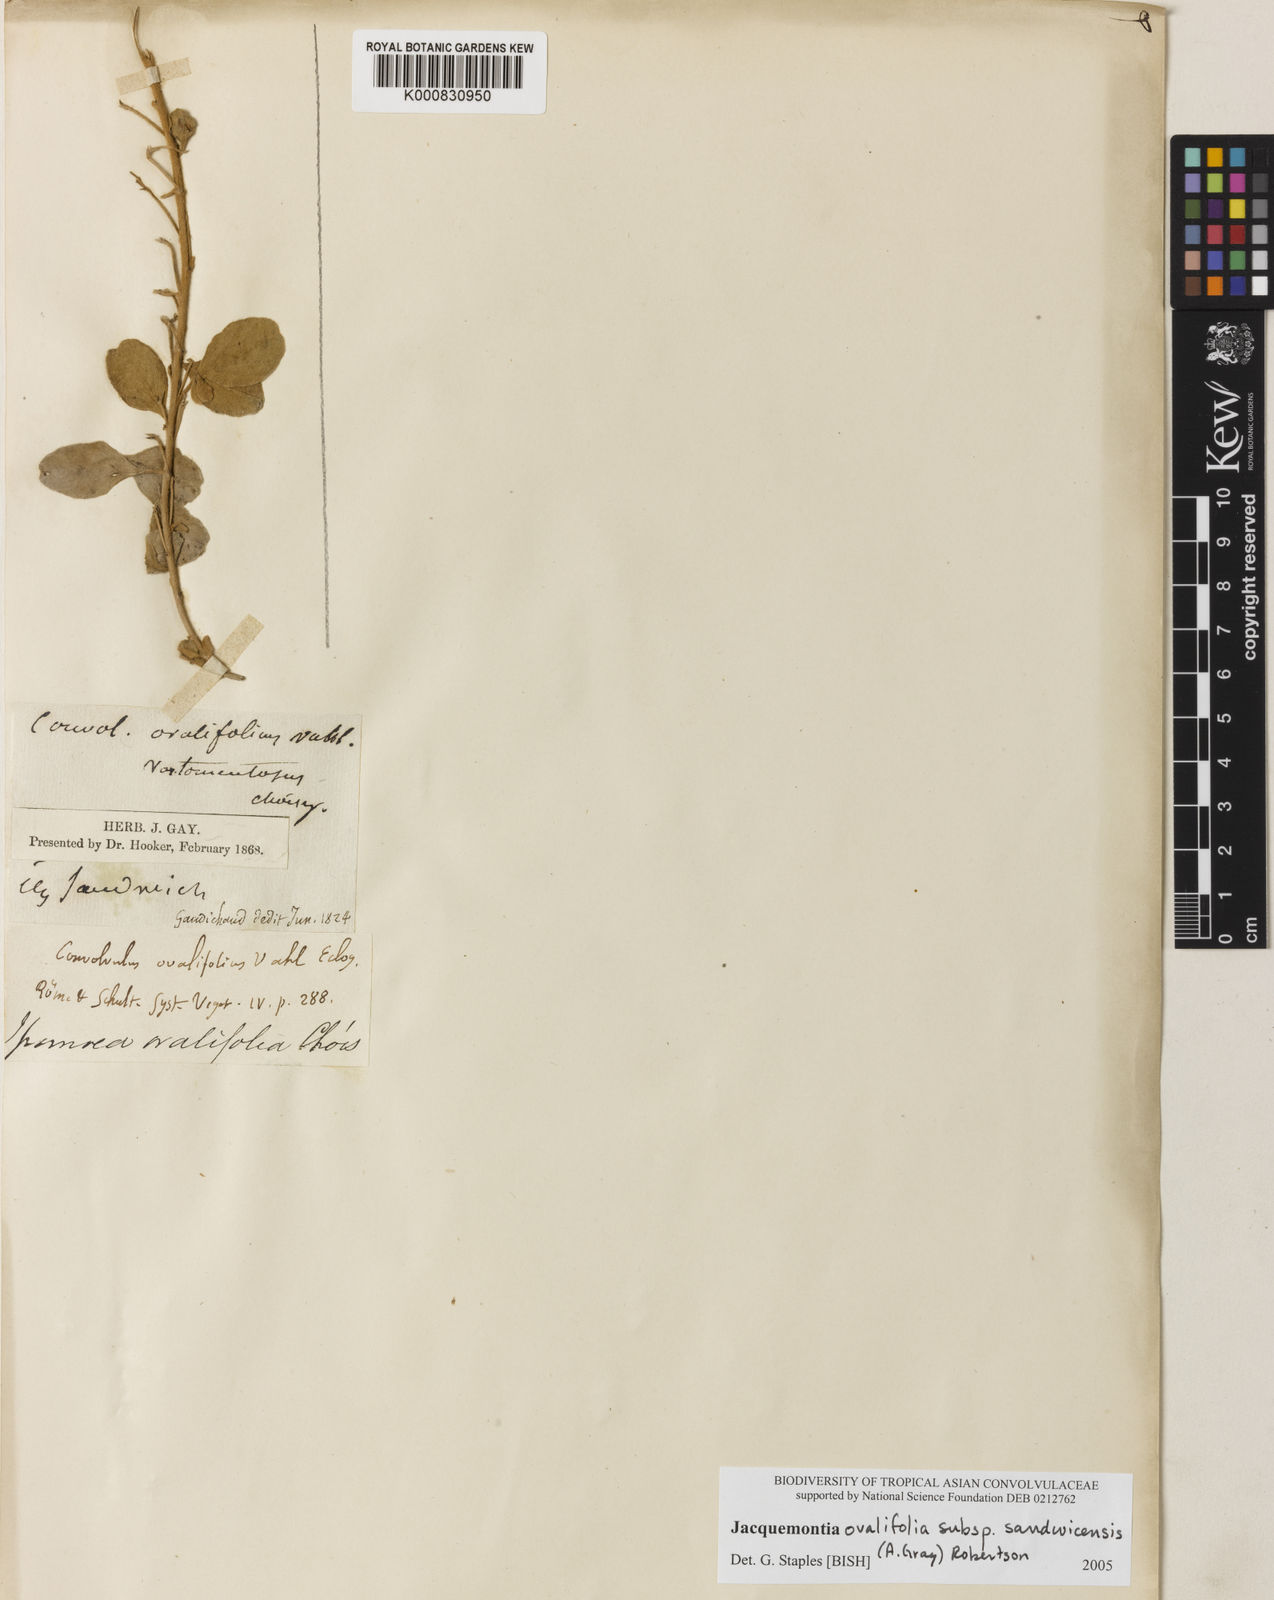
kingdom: Plantae
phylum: Tracheophyta
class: Magnoliopsida
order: Solanales
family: Convolvulaceae
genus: Jacquemontia
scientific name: Jacquemontia ovalifolia
